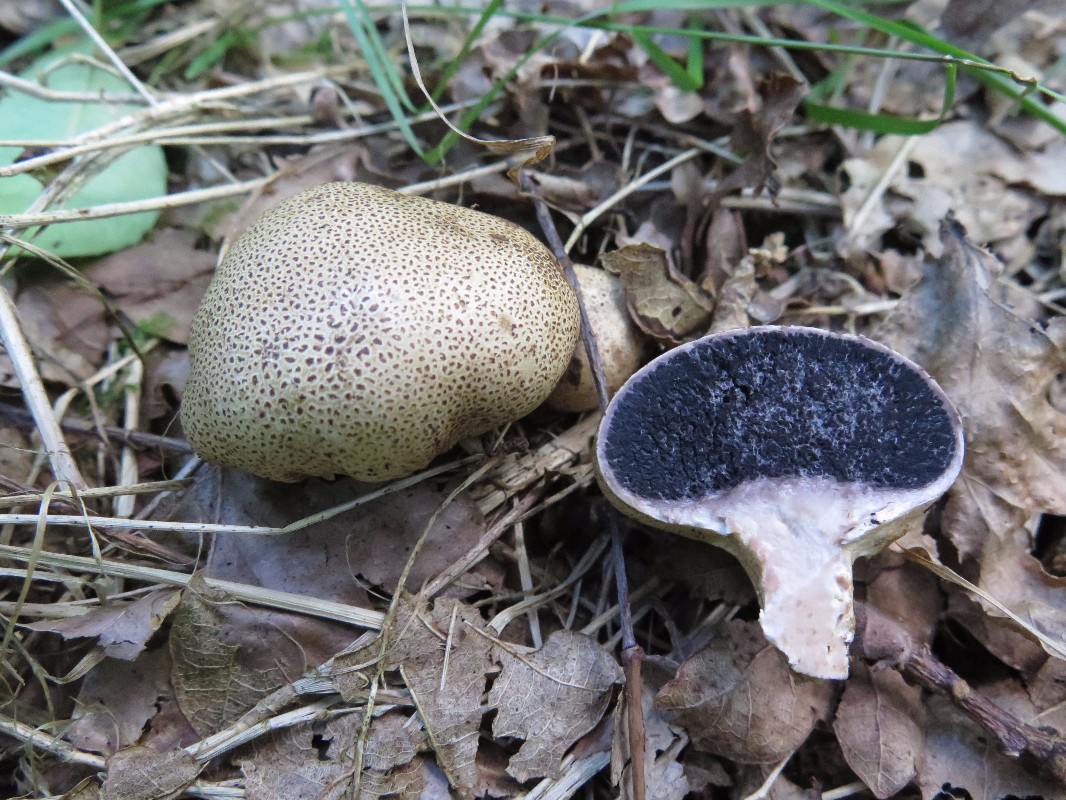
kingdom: Fungi
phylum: Basidiomycota
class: Agaricomycetes
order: Boletales
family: Sclerodermataceae
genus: Scleroderma
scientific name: Scleroderma verrucosum
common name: stilket bruskbold
